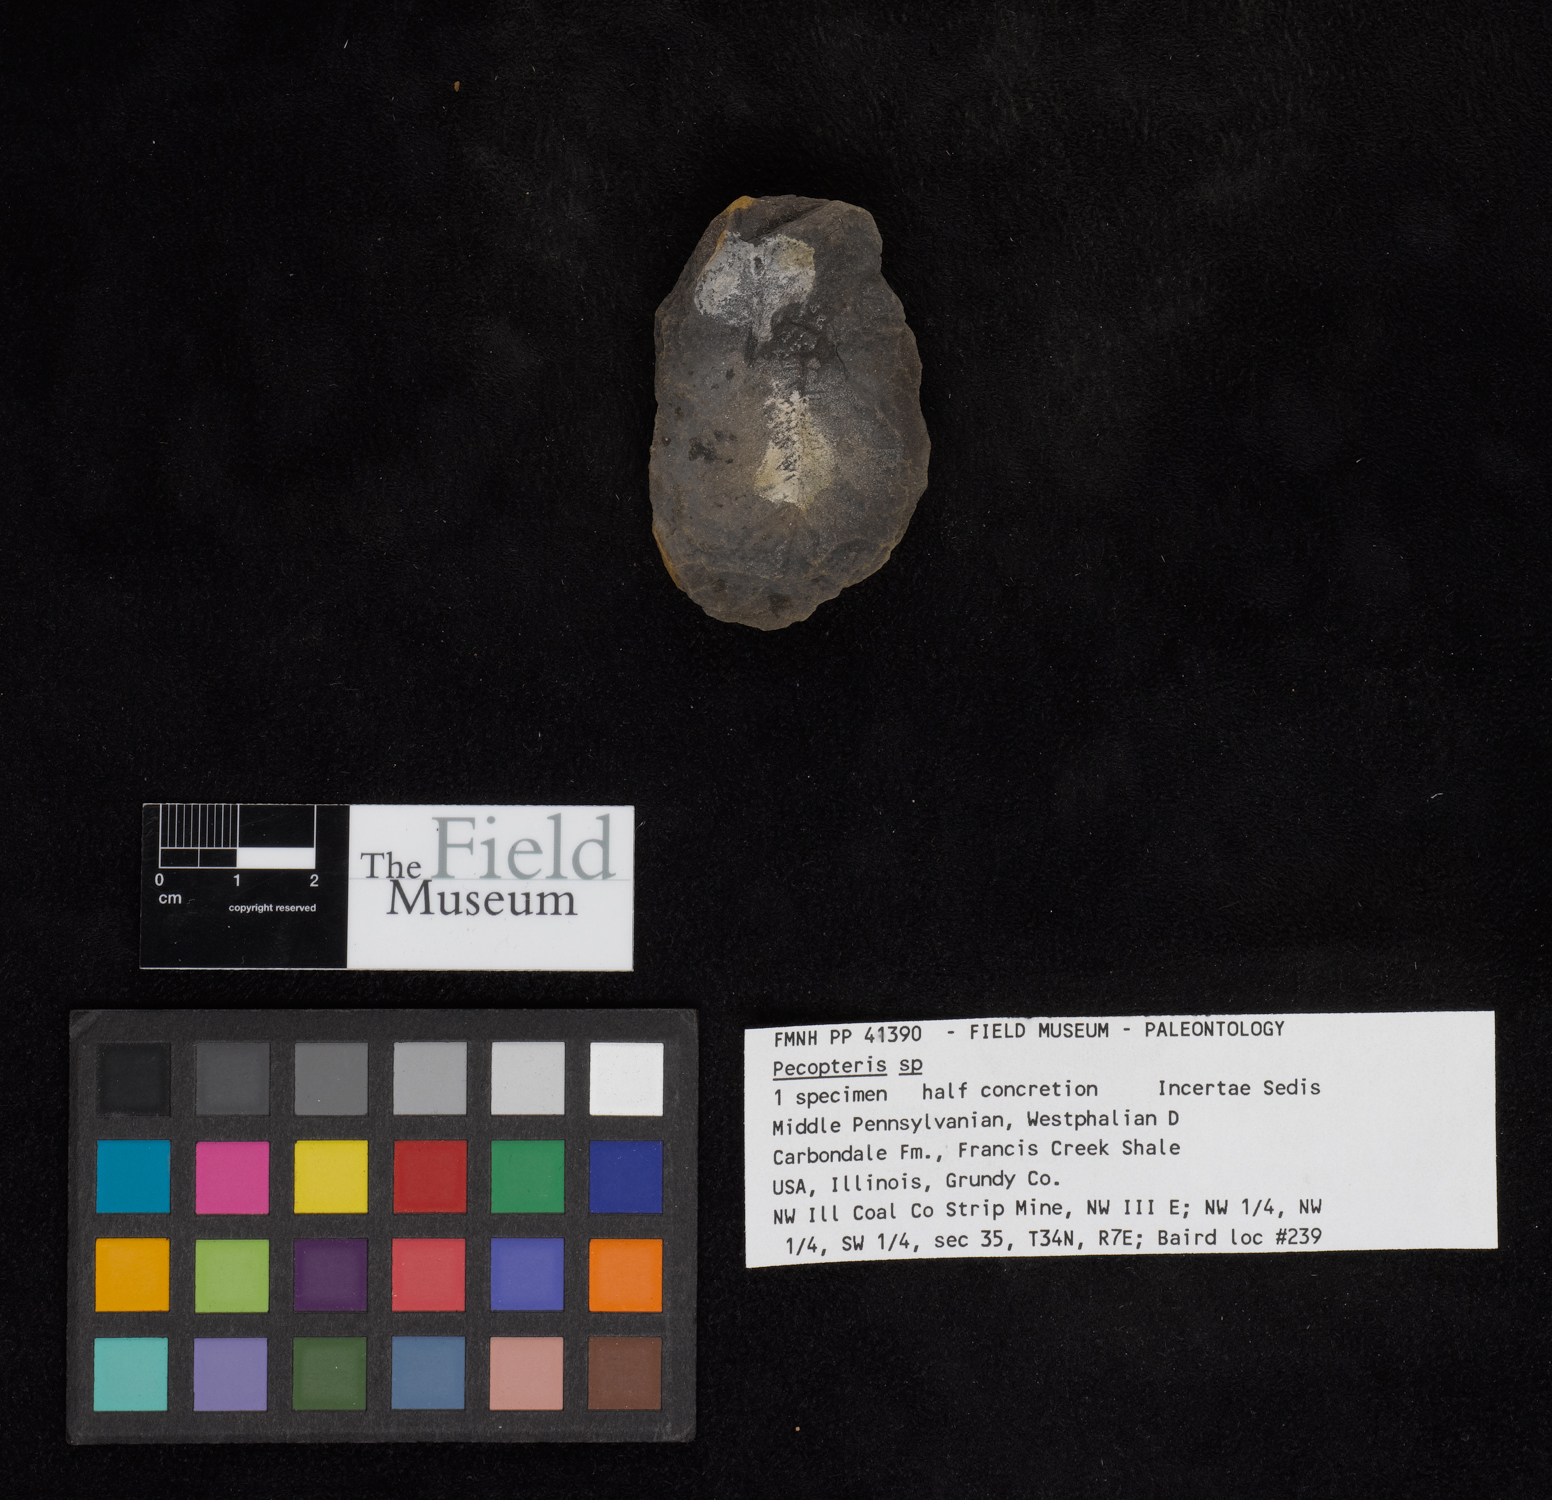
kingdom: Plantae
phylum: Tracheophyta
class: Polypodiopsida
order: Marattiales
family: Asterothecaceae
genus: Pecopteris
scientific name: Pecopteris
